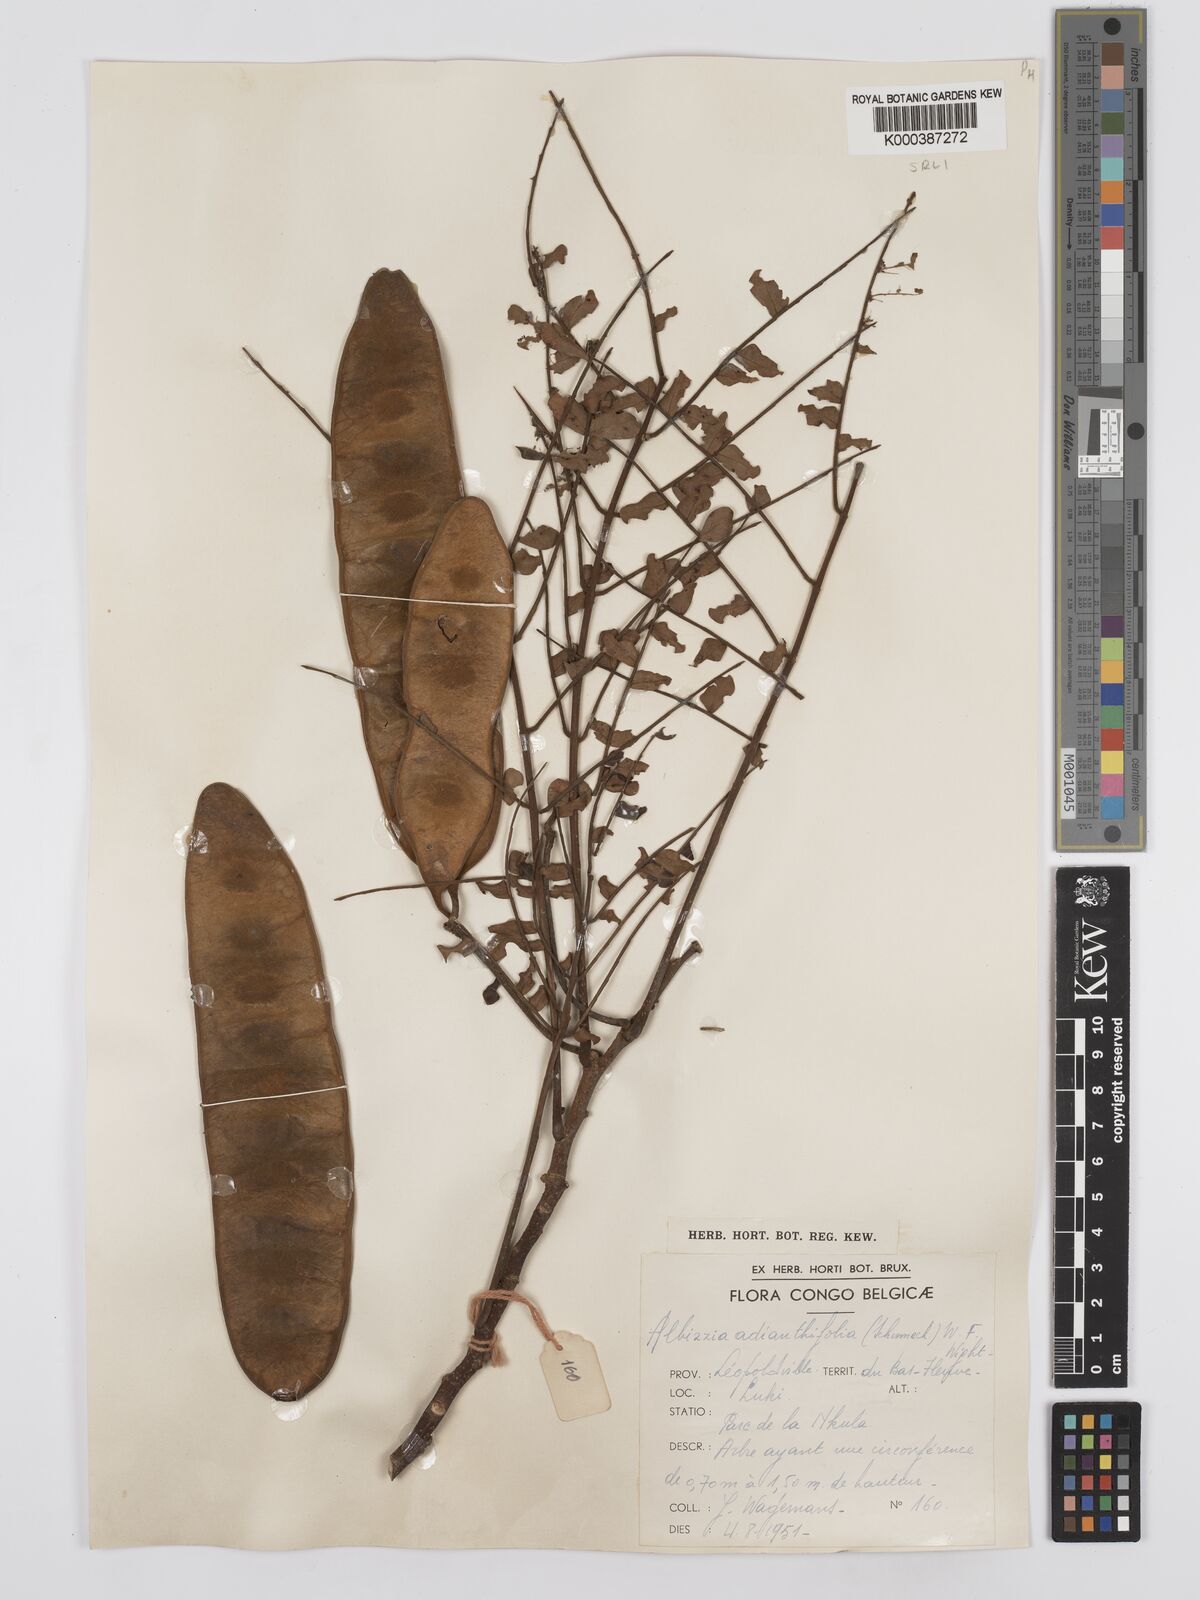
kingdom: Plantae
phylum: Tracheophyta
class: Magnoliopsida
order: Fabales
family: Fabaceae
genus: Albizia
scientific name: Albizia adianthifolia
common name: West african albizia
